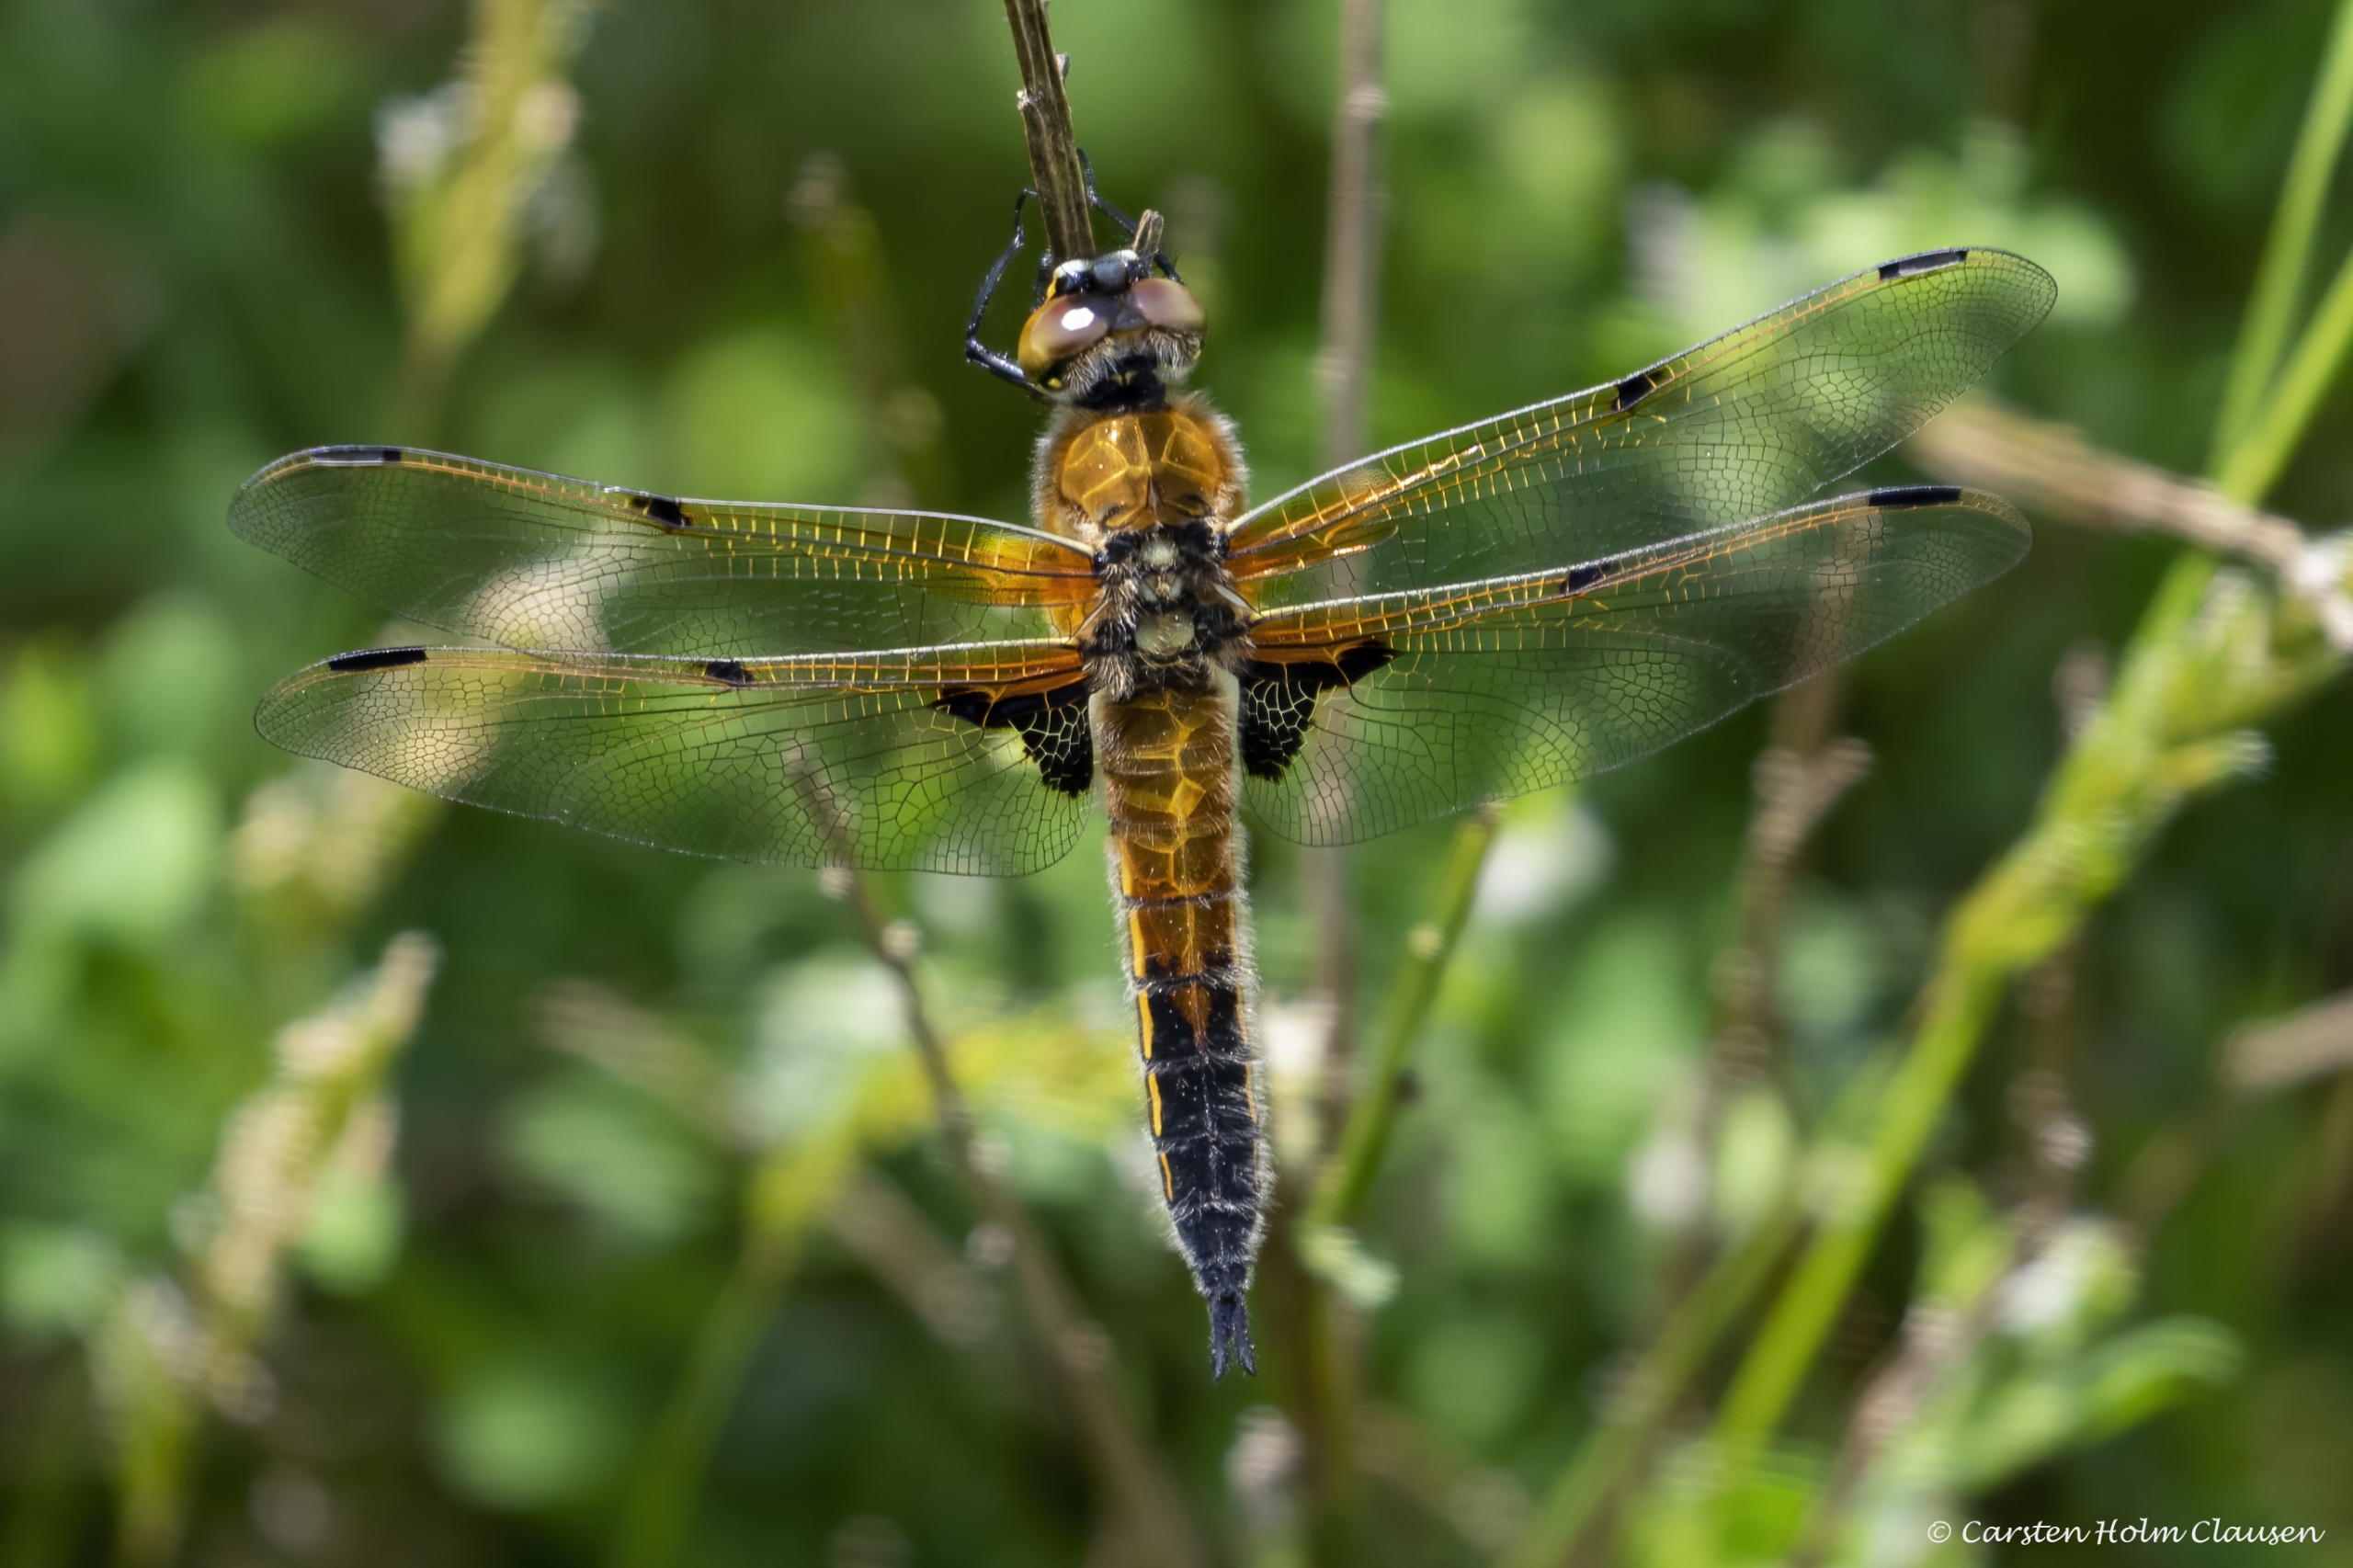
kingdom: Animalia
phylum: Arthropoda
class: Insecta
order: Odonata
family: Libellulidae
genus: Libellula
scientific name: Libellula quadrimaculata
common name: Fireplettet libel
